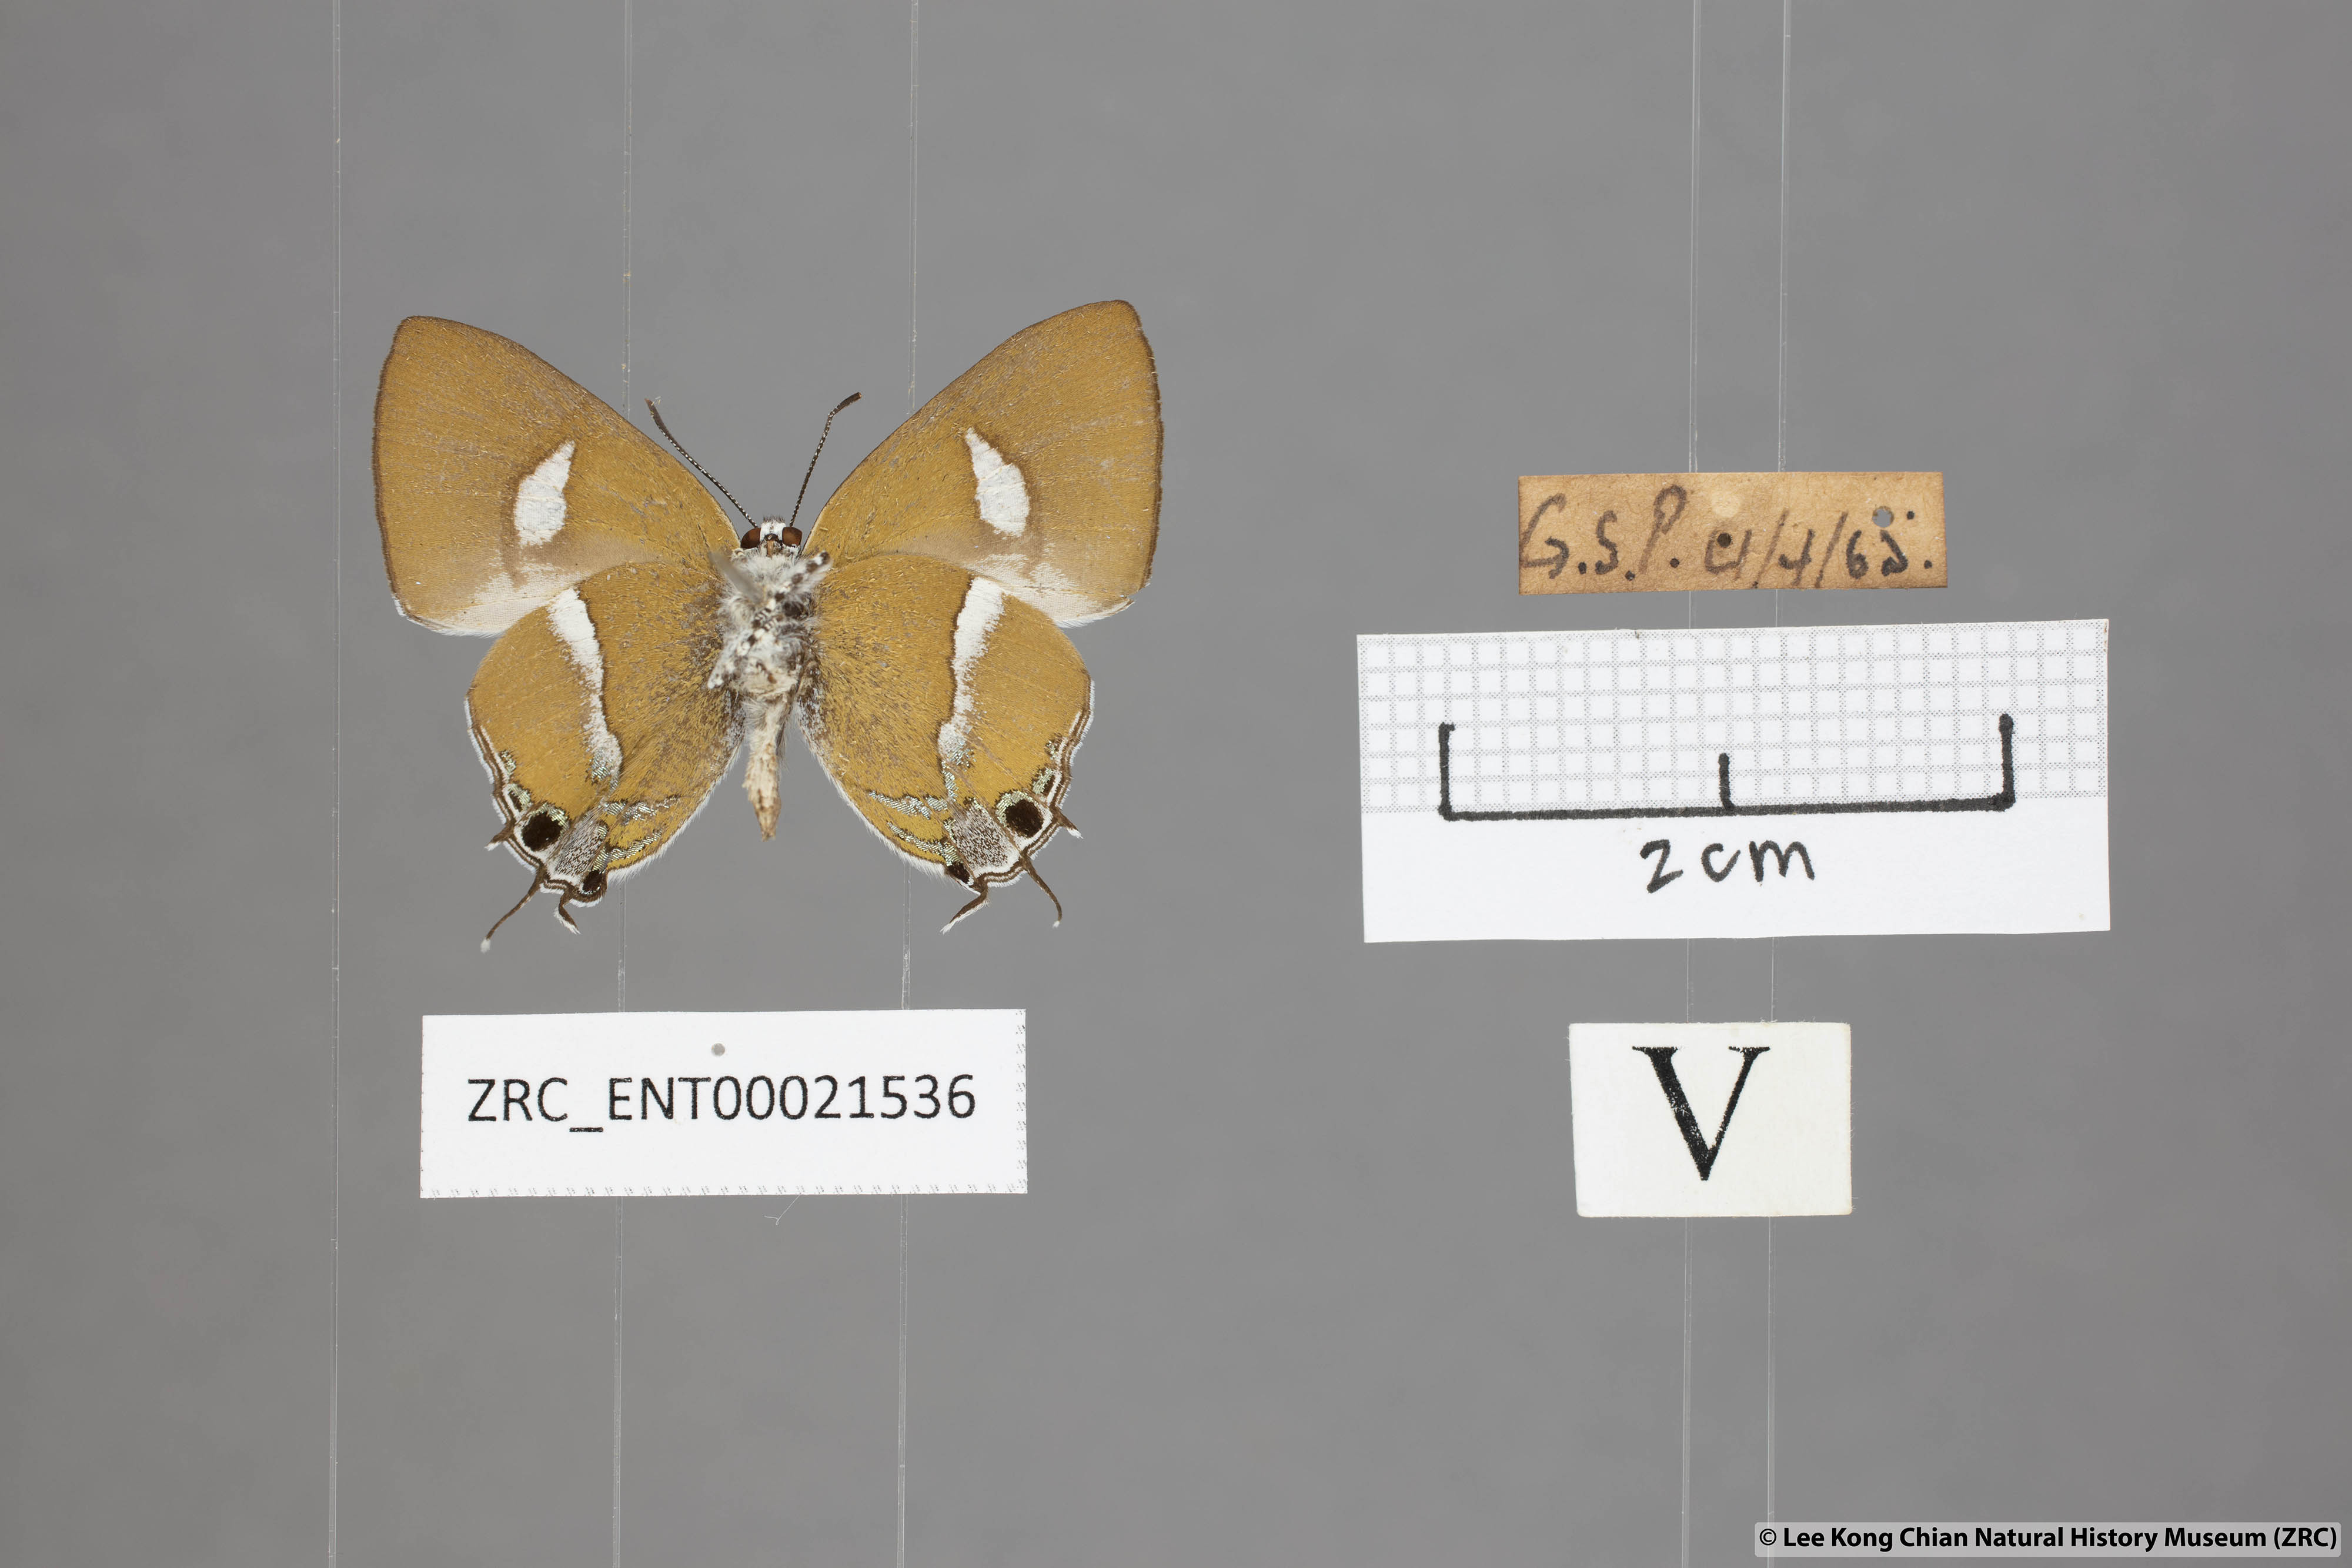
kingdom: Animalia
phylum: Arthropoda
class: Insecta
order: Lepidoptera
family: Lycaenidae
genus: Horaga
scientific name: Horaga syrinx
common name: Ambon onyx
